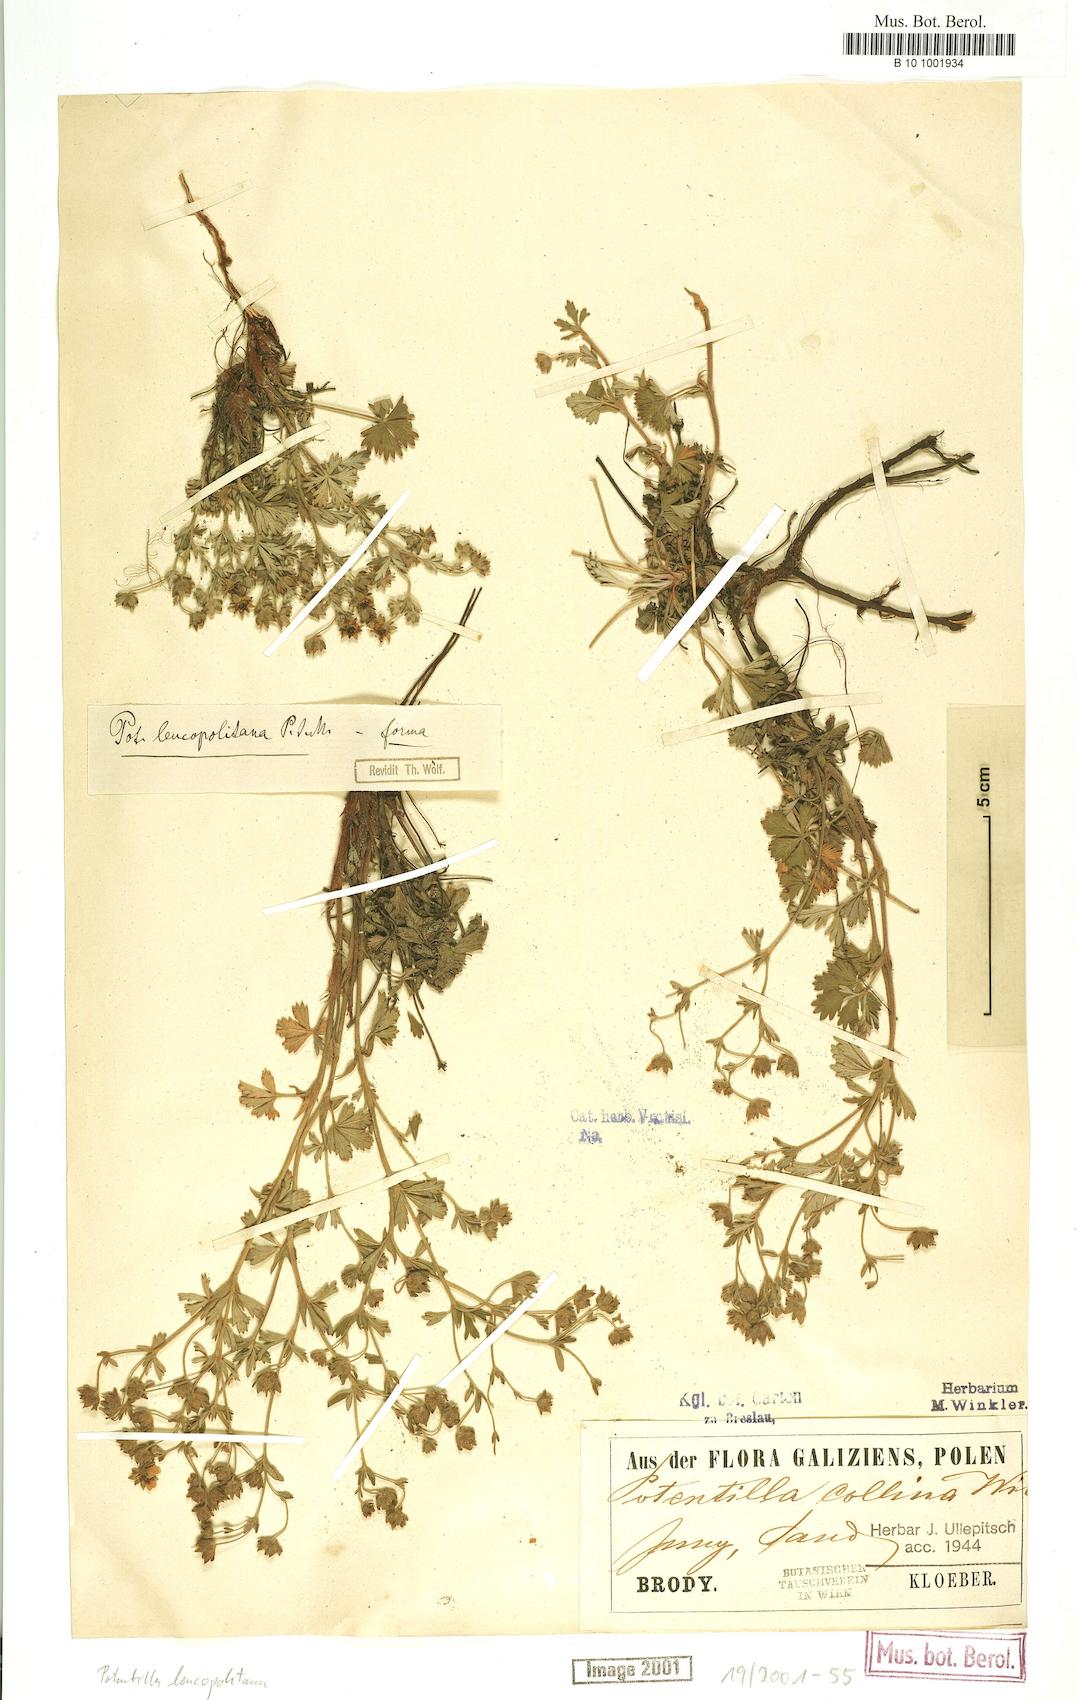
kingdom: Plantae
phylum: Tracheophyta
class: Magnoliopsida
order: Rosales
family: Rosaceae
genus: Potentilla
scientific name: Potentilla
